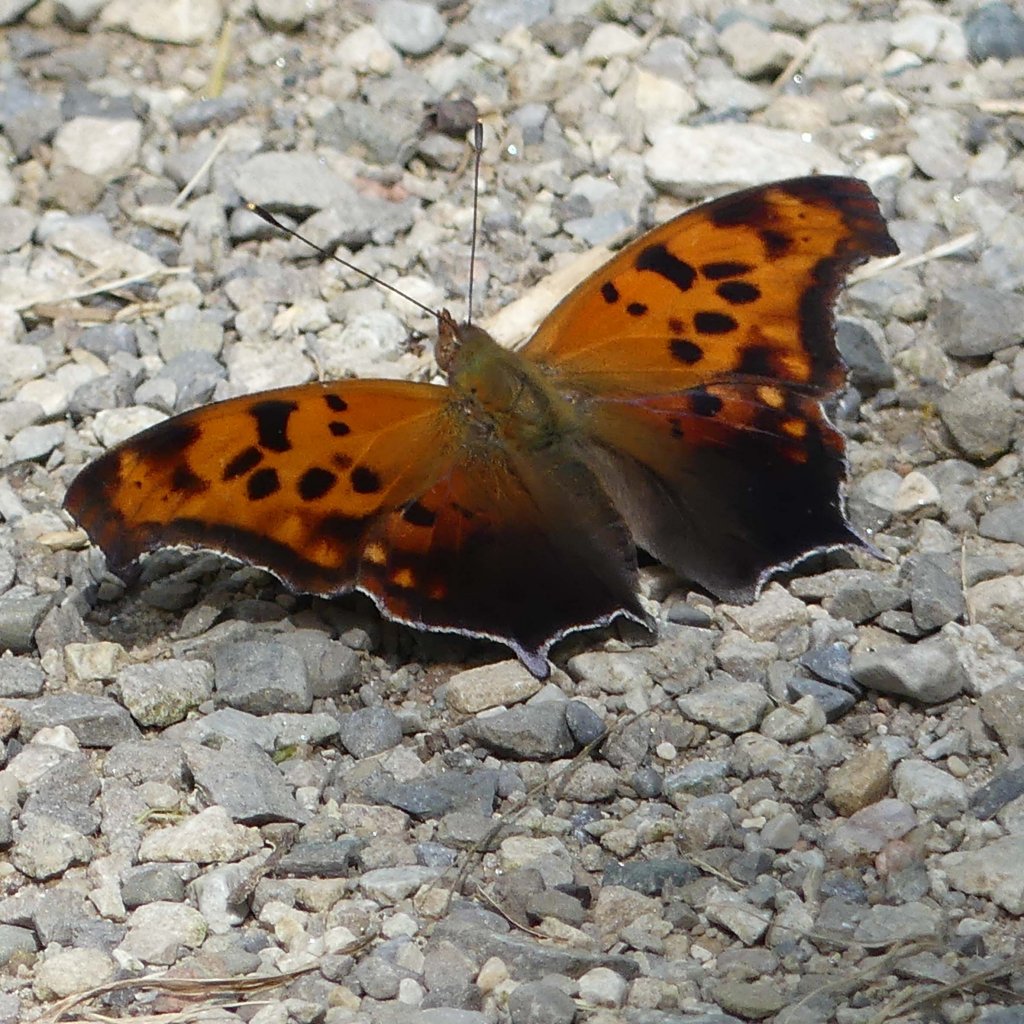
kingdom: Animalia
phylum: Arthropoda
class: Insecta
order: Lepidoptera
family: Nymphalidae
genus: Polygonia
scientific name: Polygonia interrogationis
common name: Question Mark
